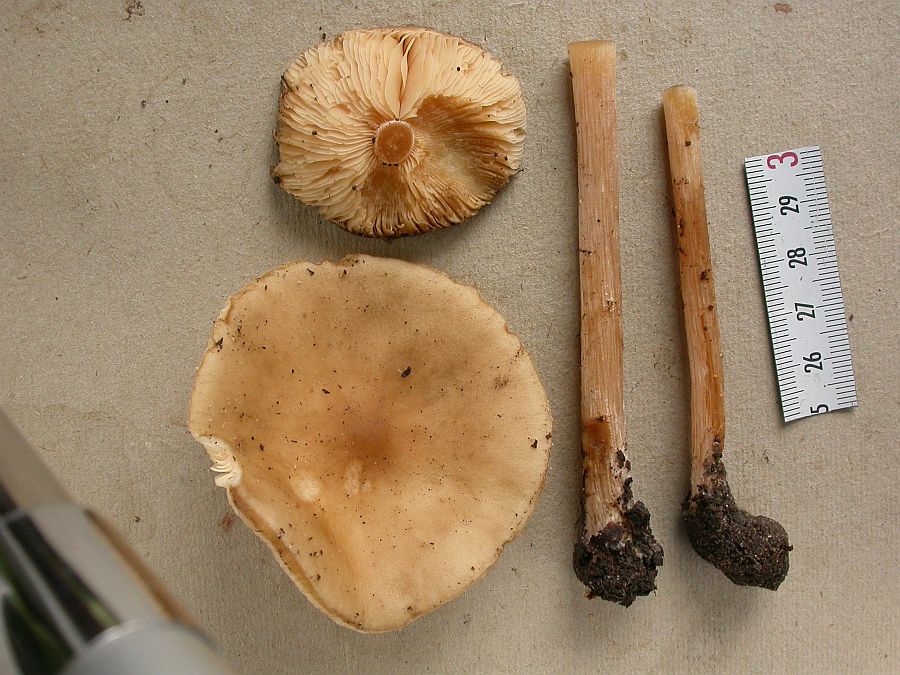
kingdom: Fungi
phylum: Basidiomycota
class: Agaricomycetes
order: Agaricales
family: Tricholomataceae
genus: Melanoleuca
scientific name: Melanoleuca cognata
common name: gyldengrå munkehat
